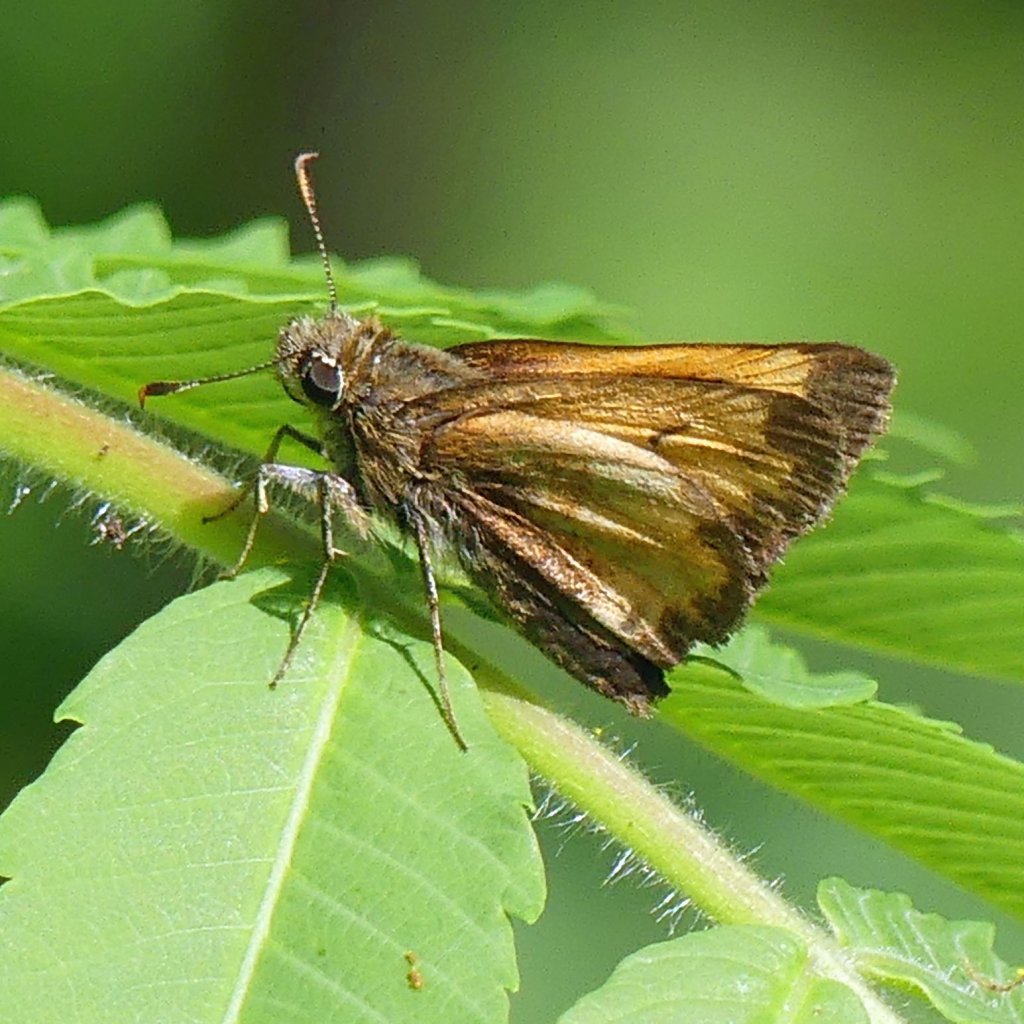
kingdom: Animalia
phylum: Arthropoda
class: Insecta
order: Lepidoptera
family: Hesperiidae
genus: Lon
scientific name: Lon hobomok
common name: Hobomok Skipper
